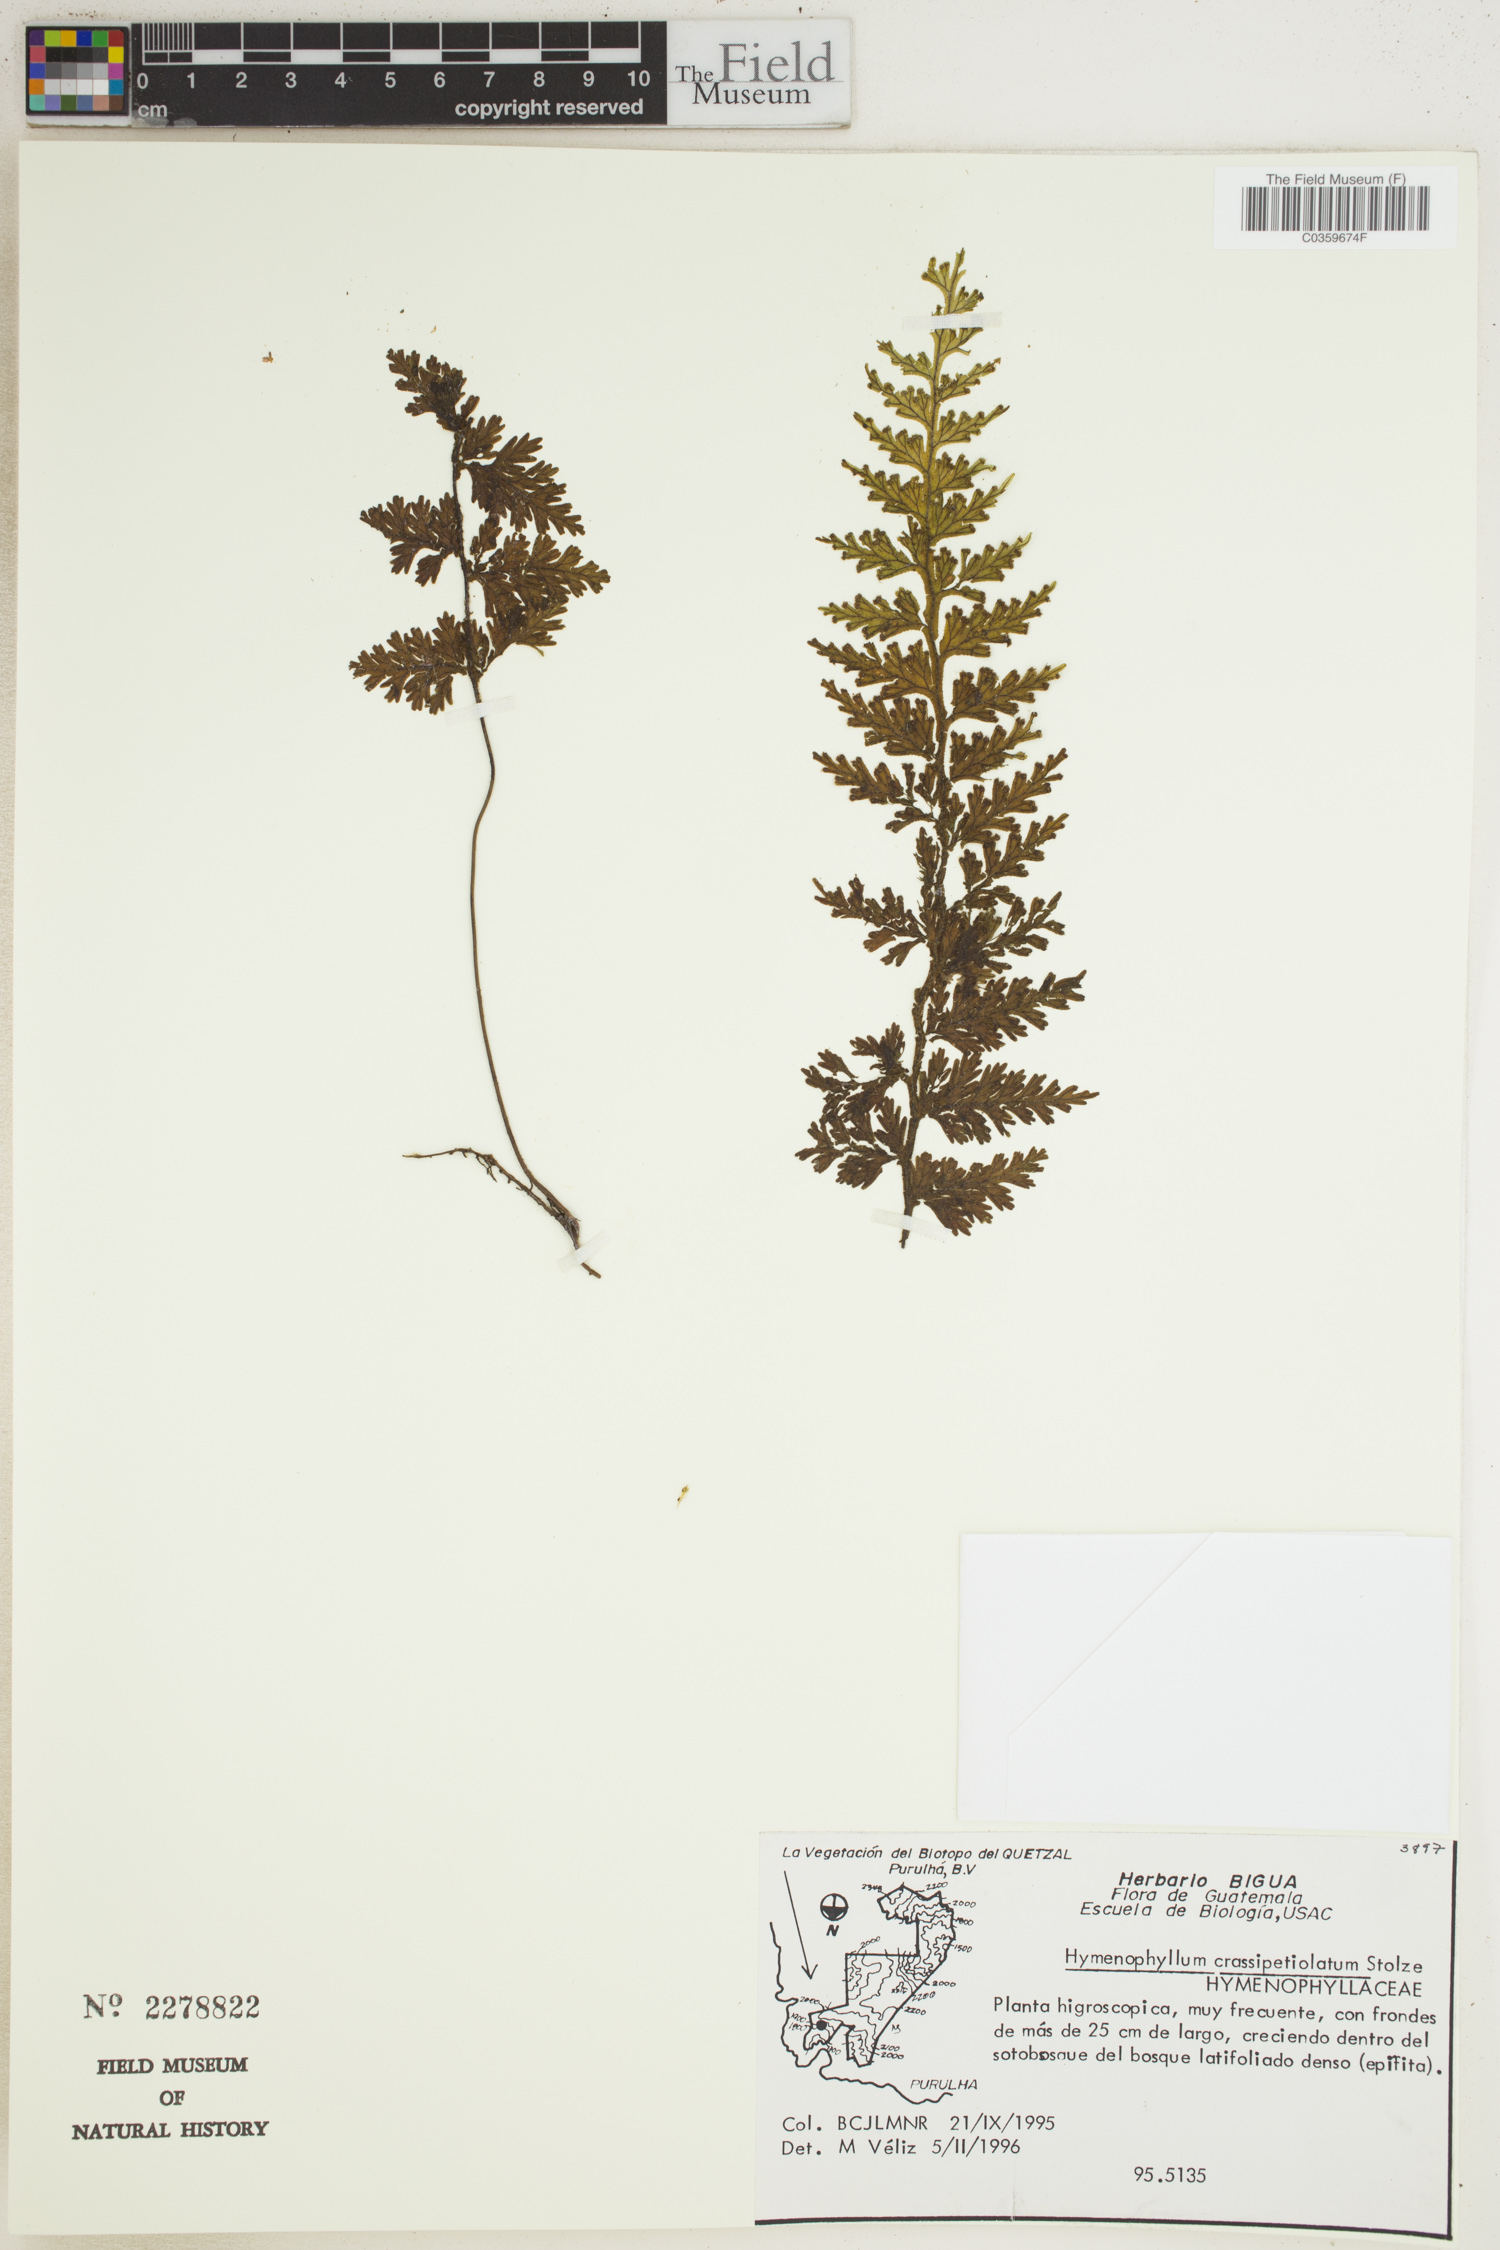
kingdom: Plantae
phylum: Tracheophyta
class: Polypodiopsida
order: Hymenophyllales
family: Hymenophyllaceae
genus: Hymenophyllum
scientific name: Hymenophyllum crassipetiolatum
